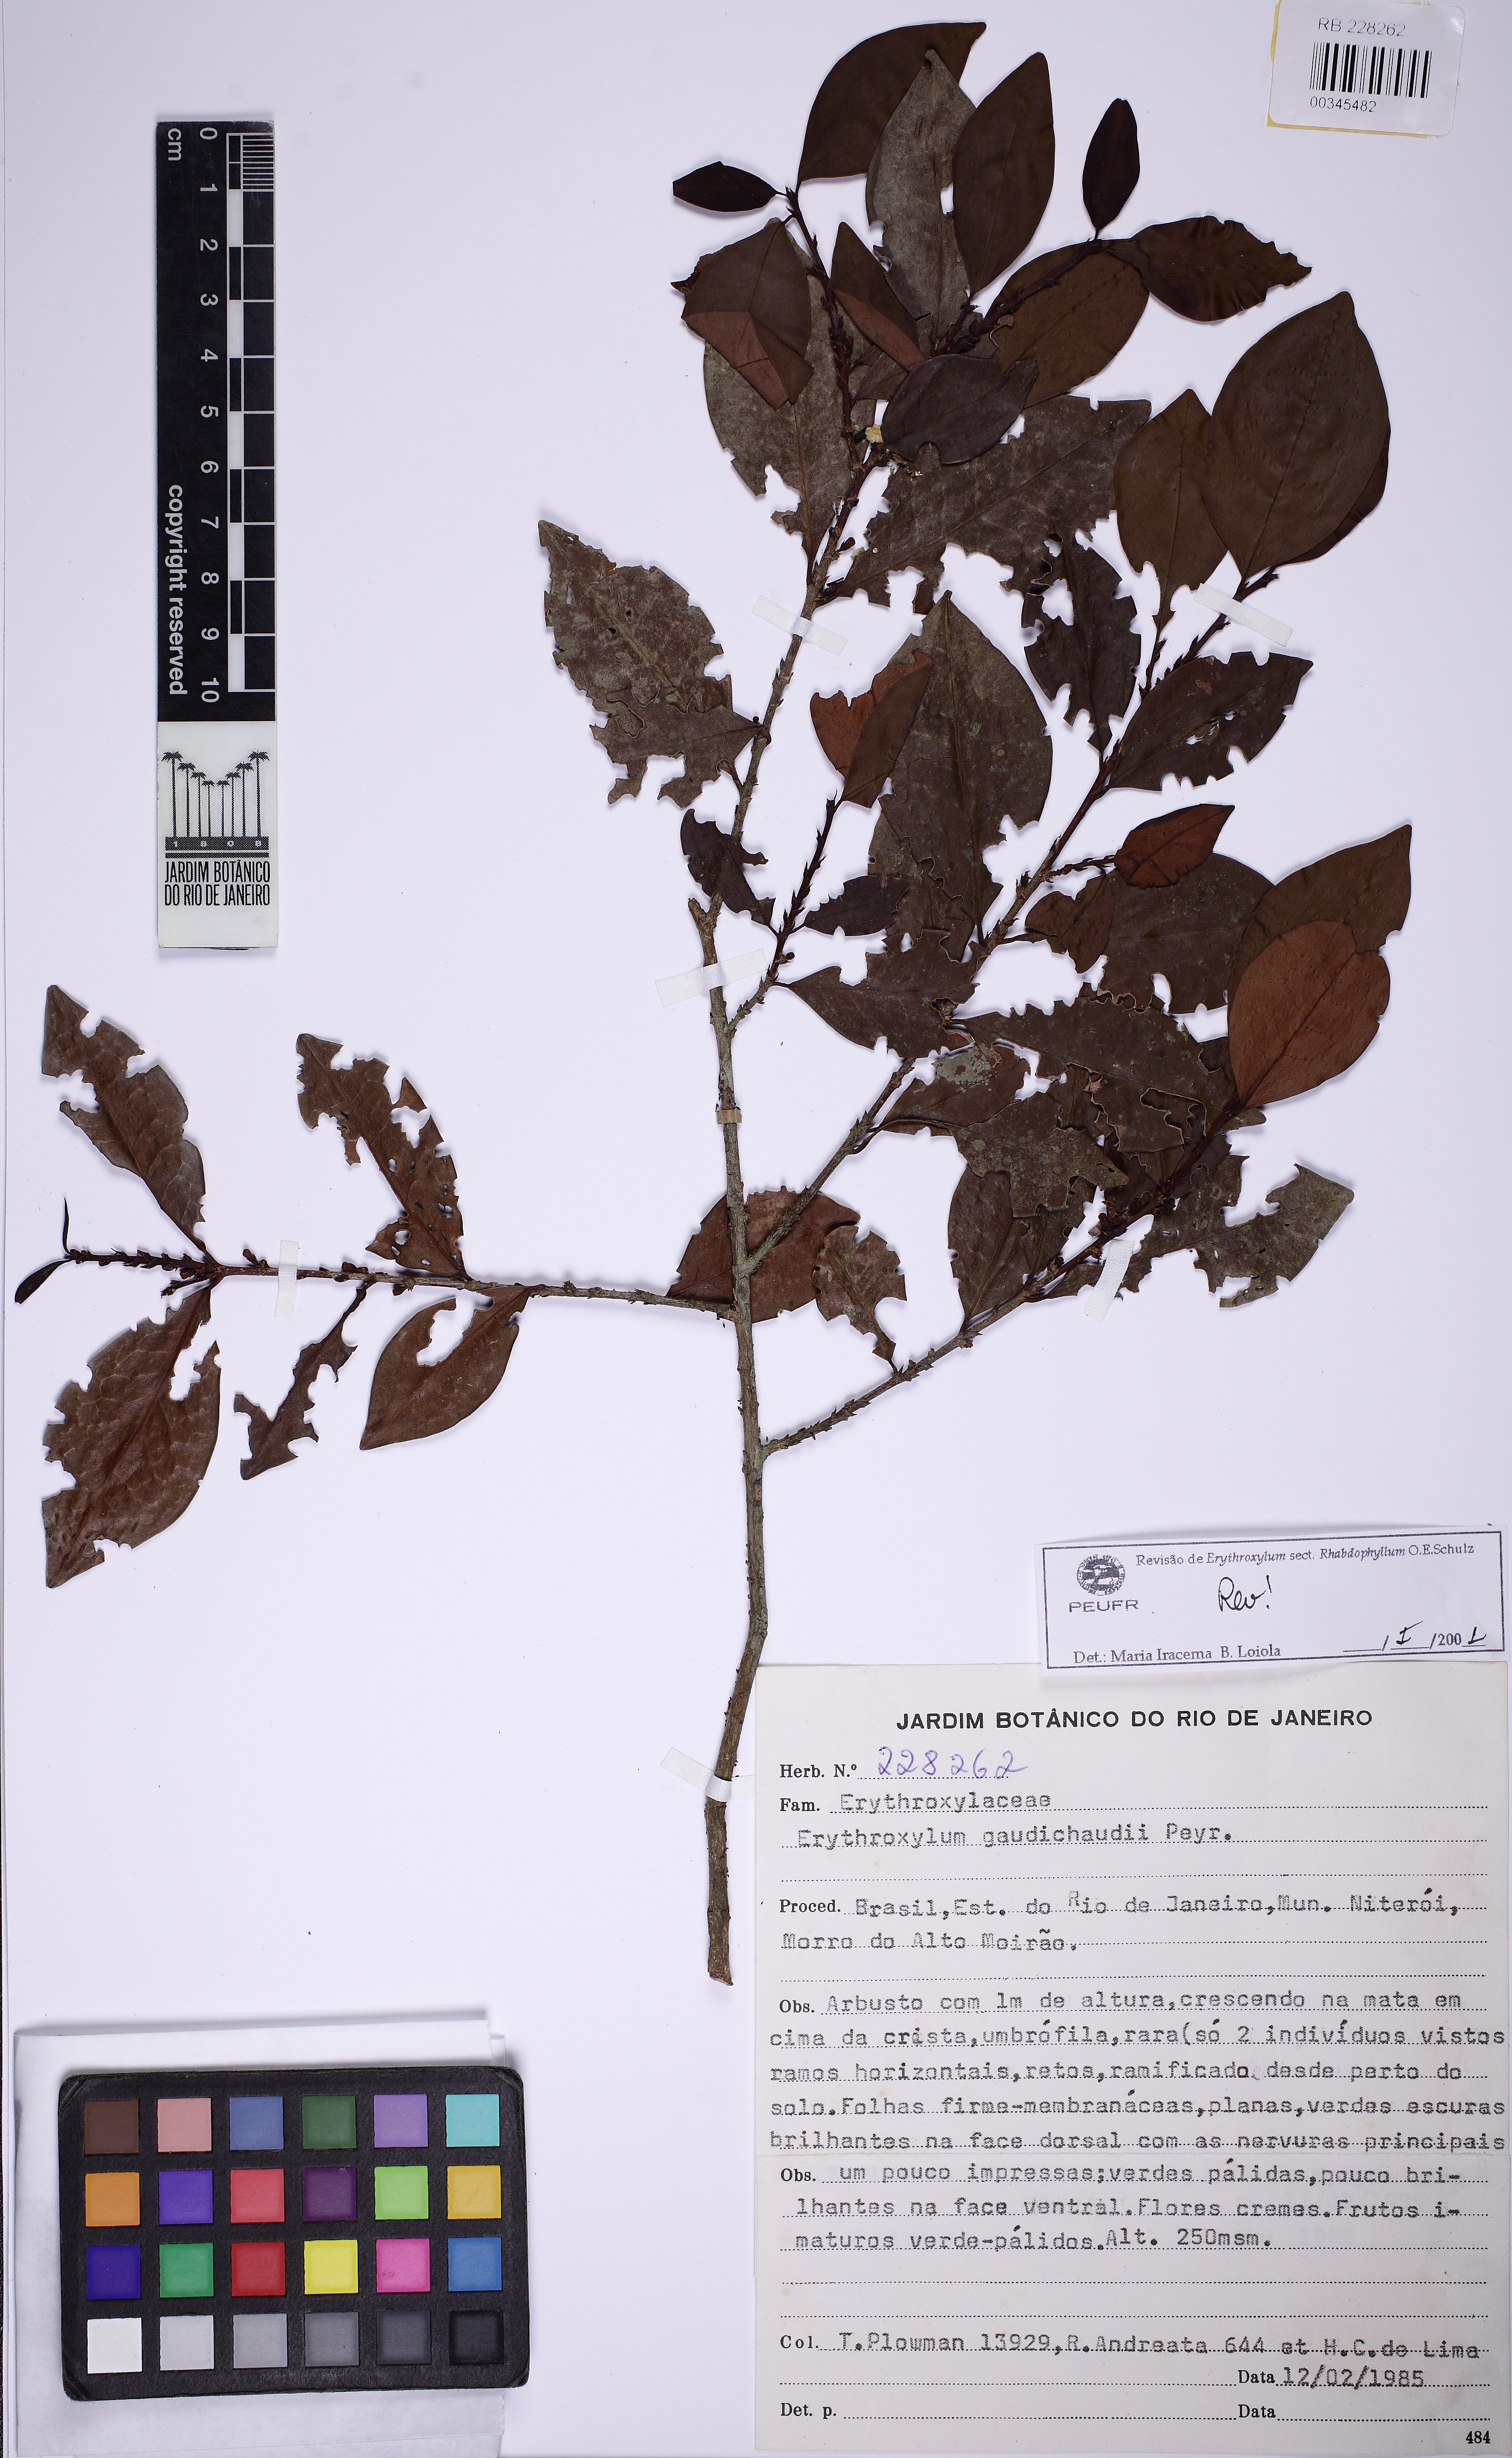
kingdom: Plantae
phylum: Tracheophyta
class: Magnoliopsida
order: Malpighiales
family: Erythroxylaceae
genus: Erythroxylum
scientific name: Erythroxylum gaudichaudii
